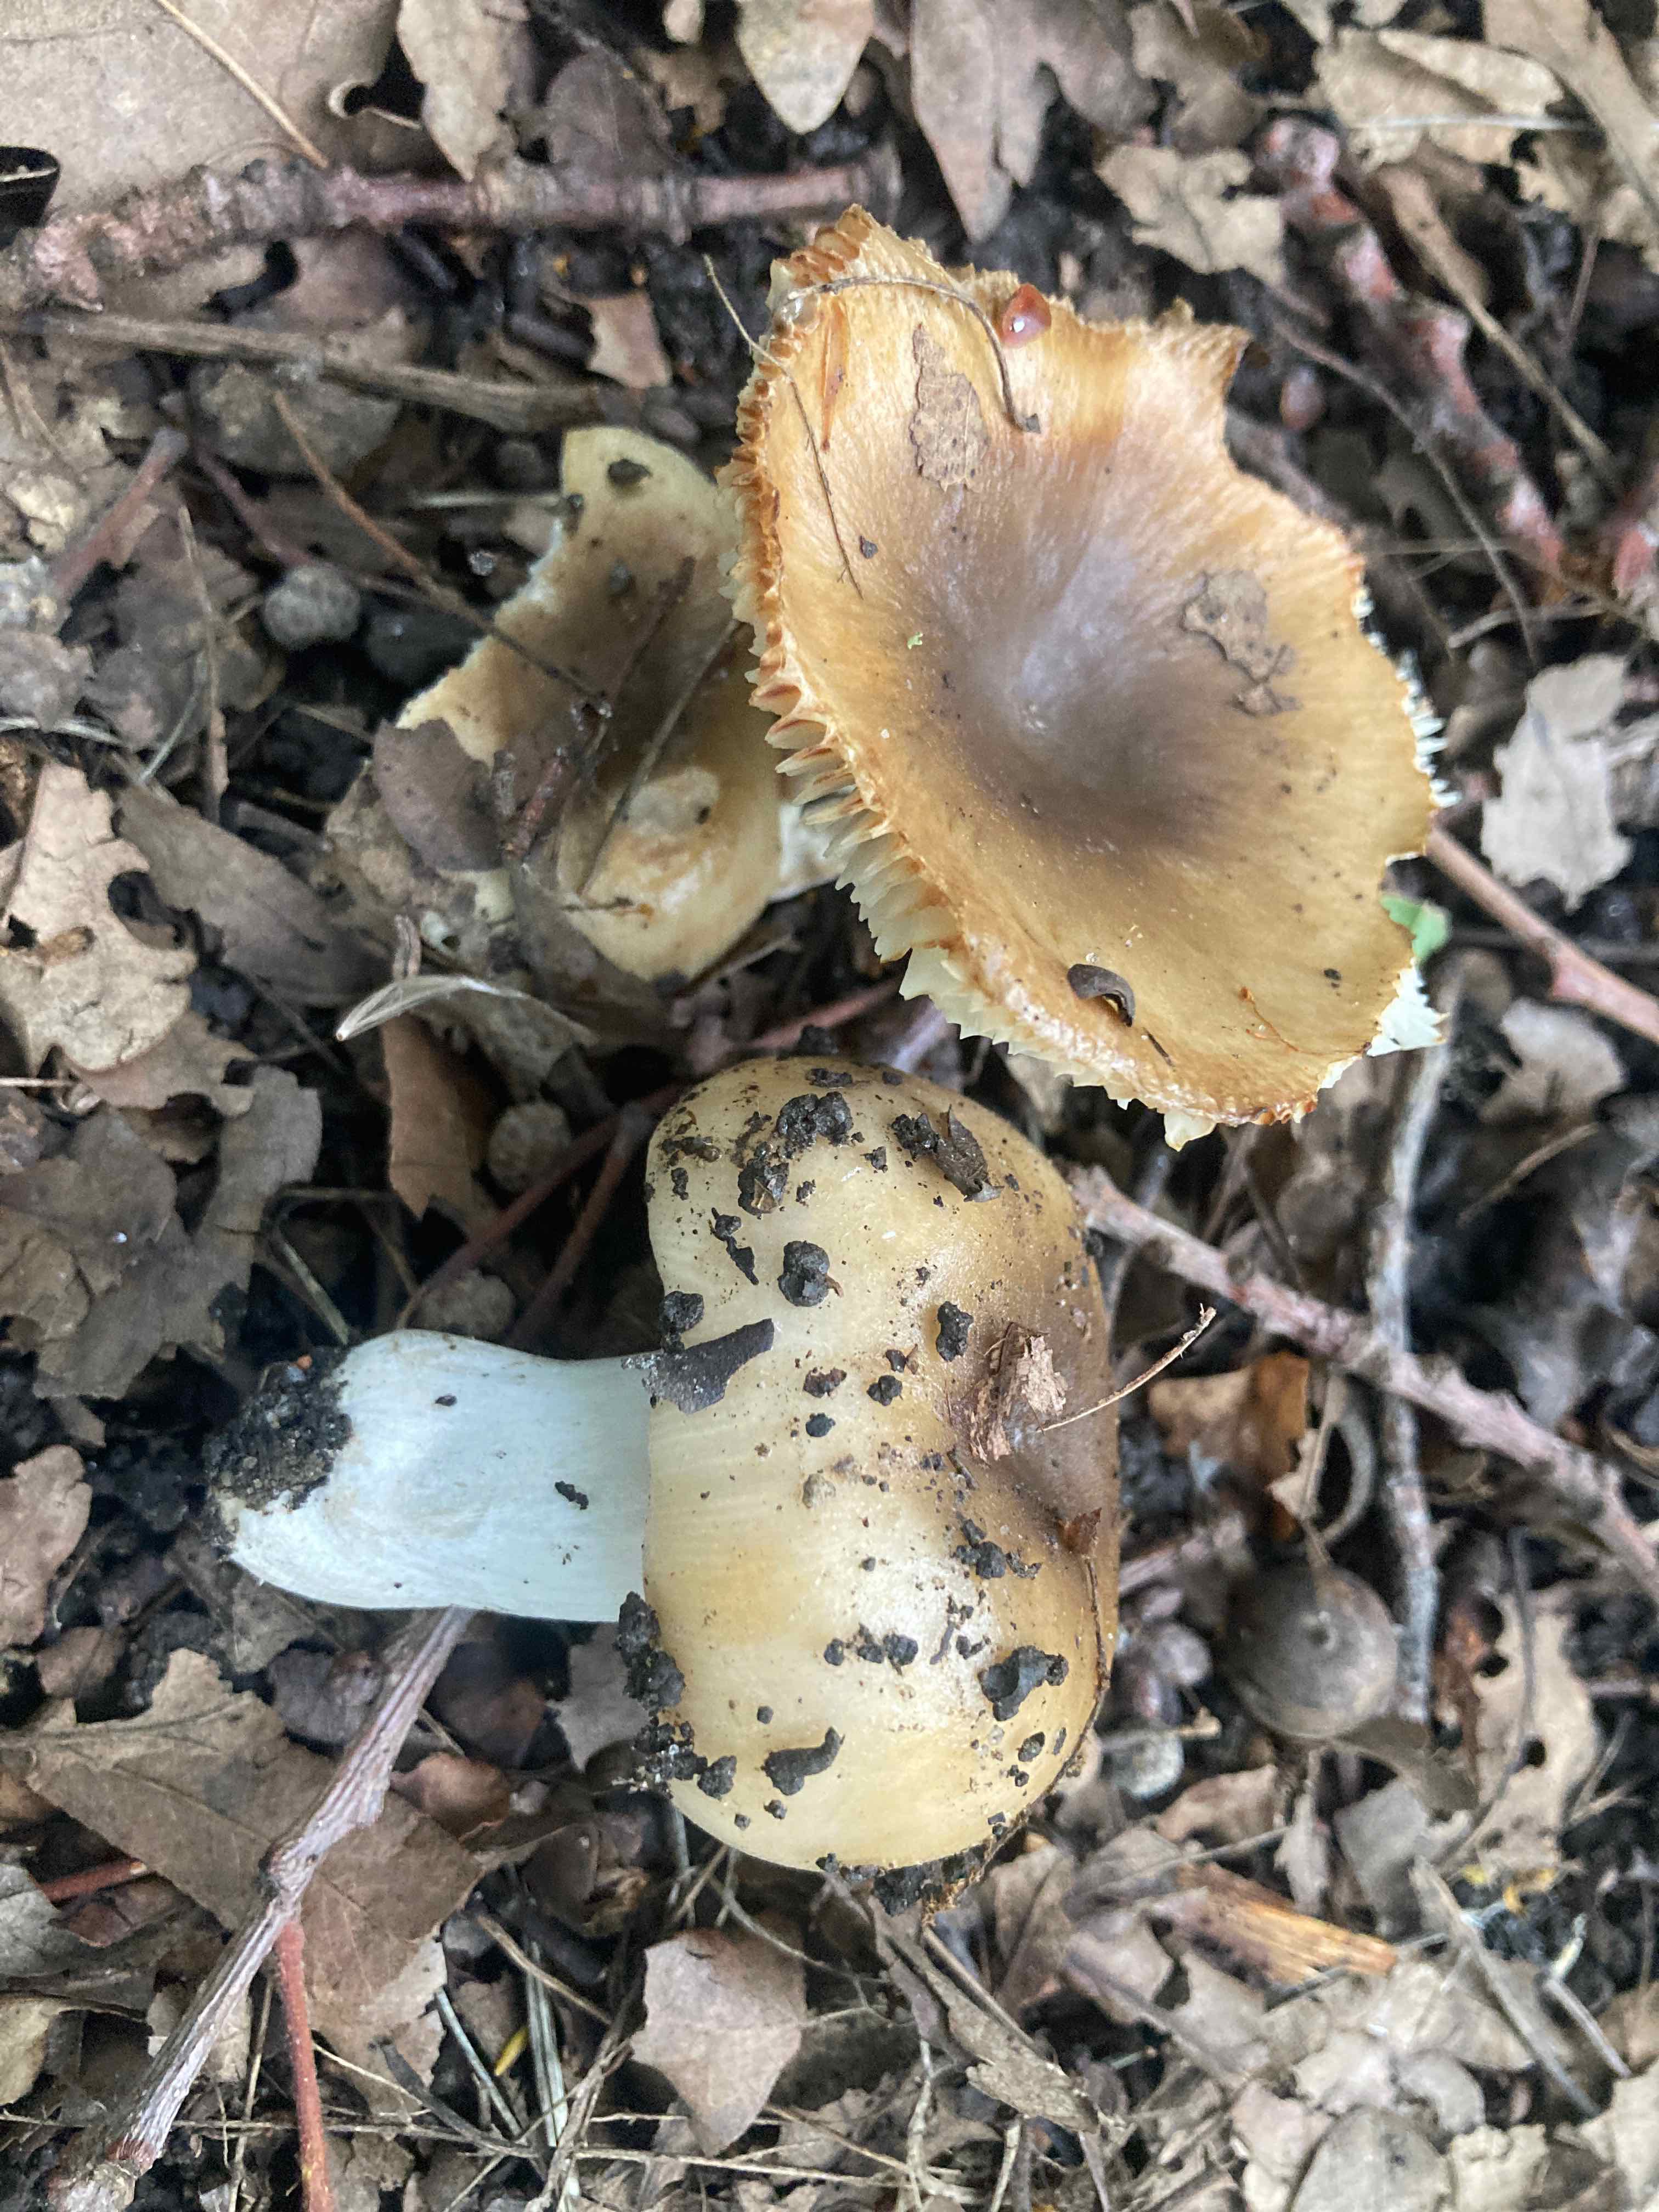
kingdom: Fungi
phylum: Basidiomycota
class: Agaricomycetes
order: Russulales
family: Russulaceae
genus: Russula
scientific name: Russula recondita
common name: mild kam-skørhat
